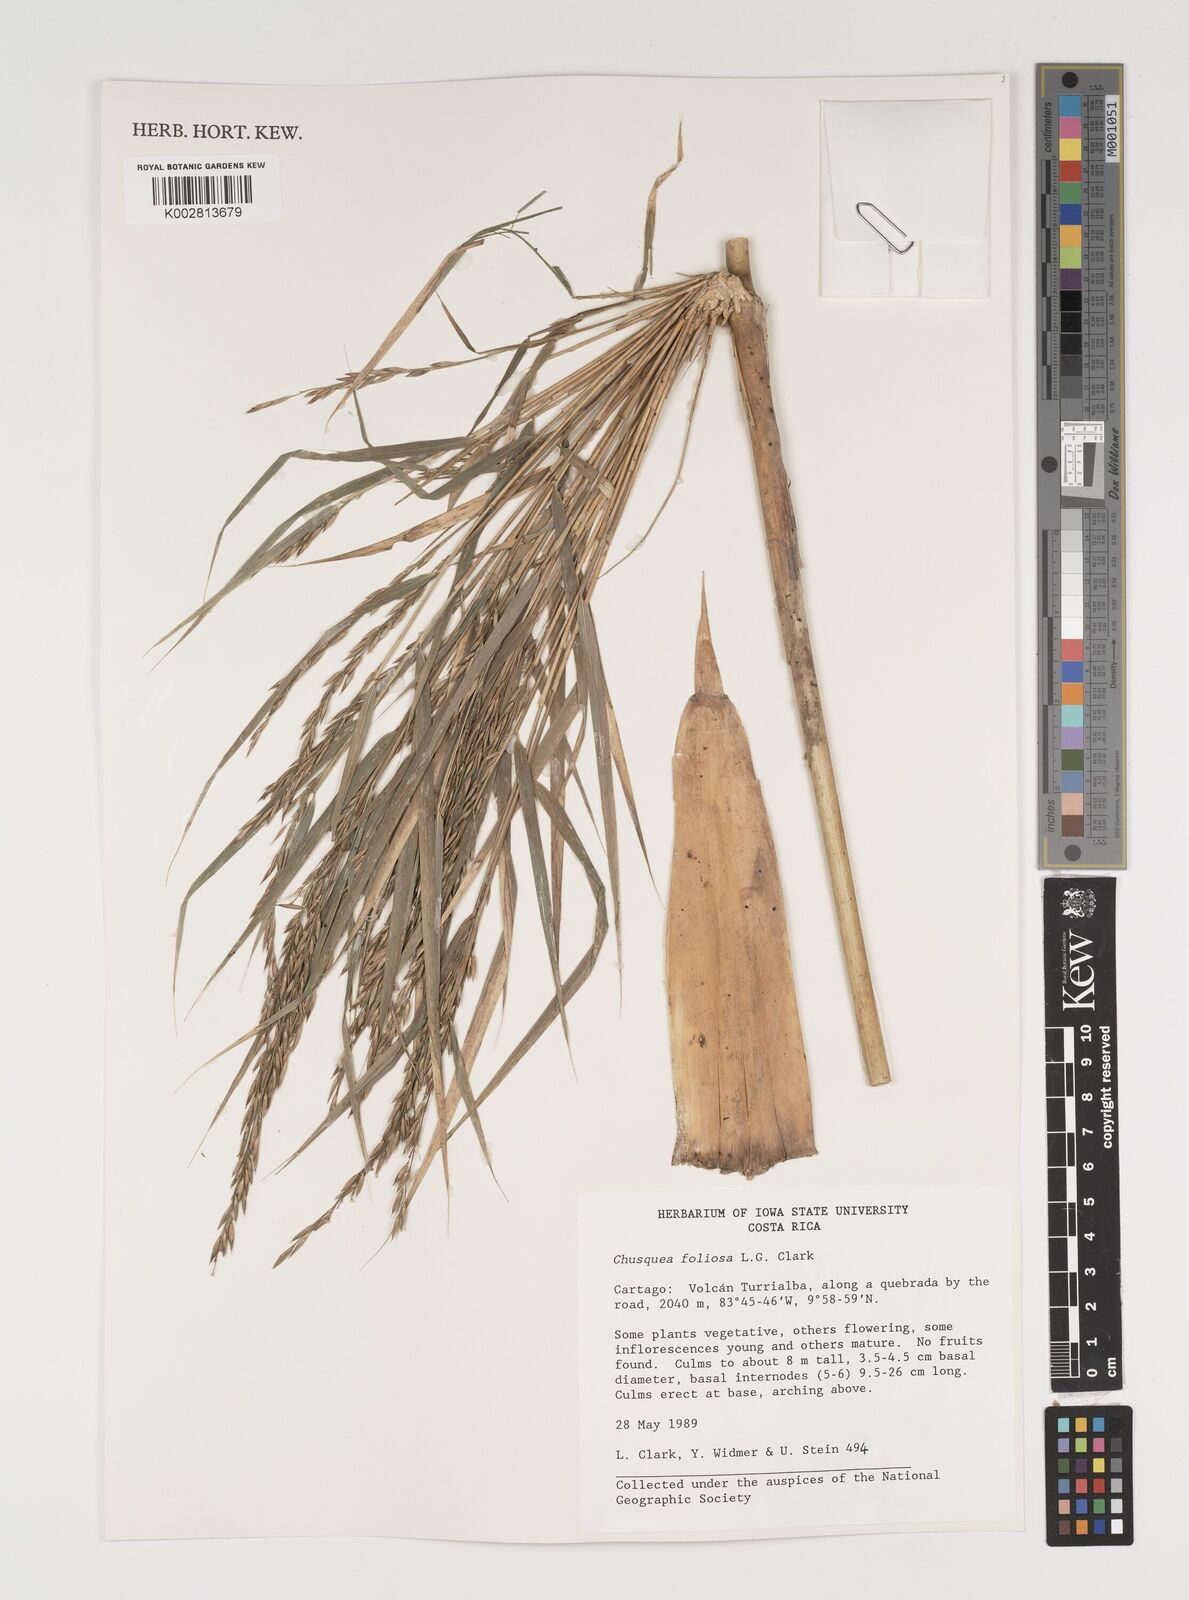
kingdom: Plantae
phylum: Tracheophyta
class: Liliopsida
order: Poales
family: Poaceae
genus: Chusquea
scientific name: Chusquea foliosa
